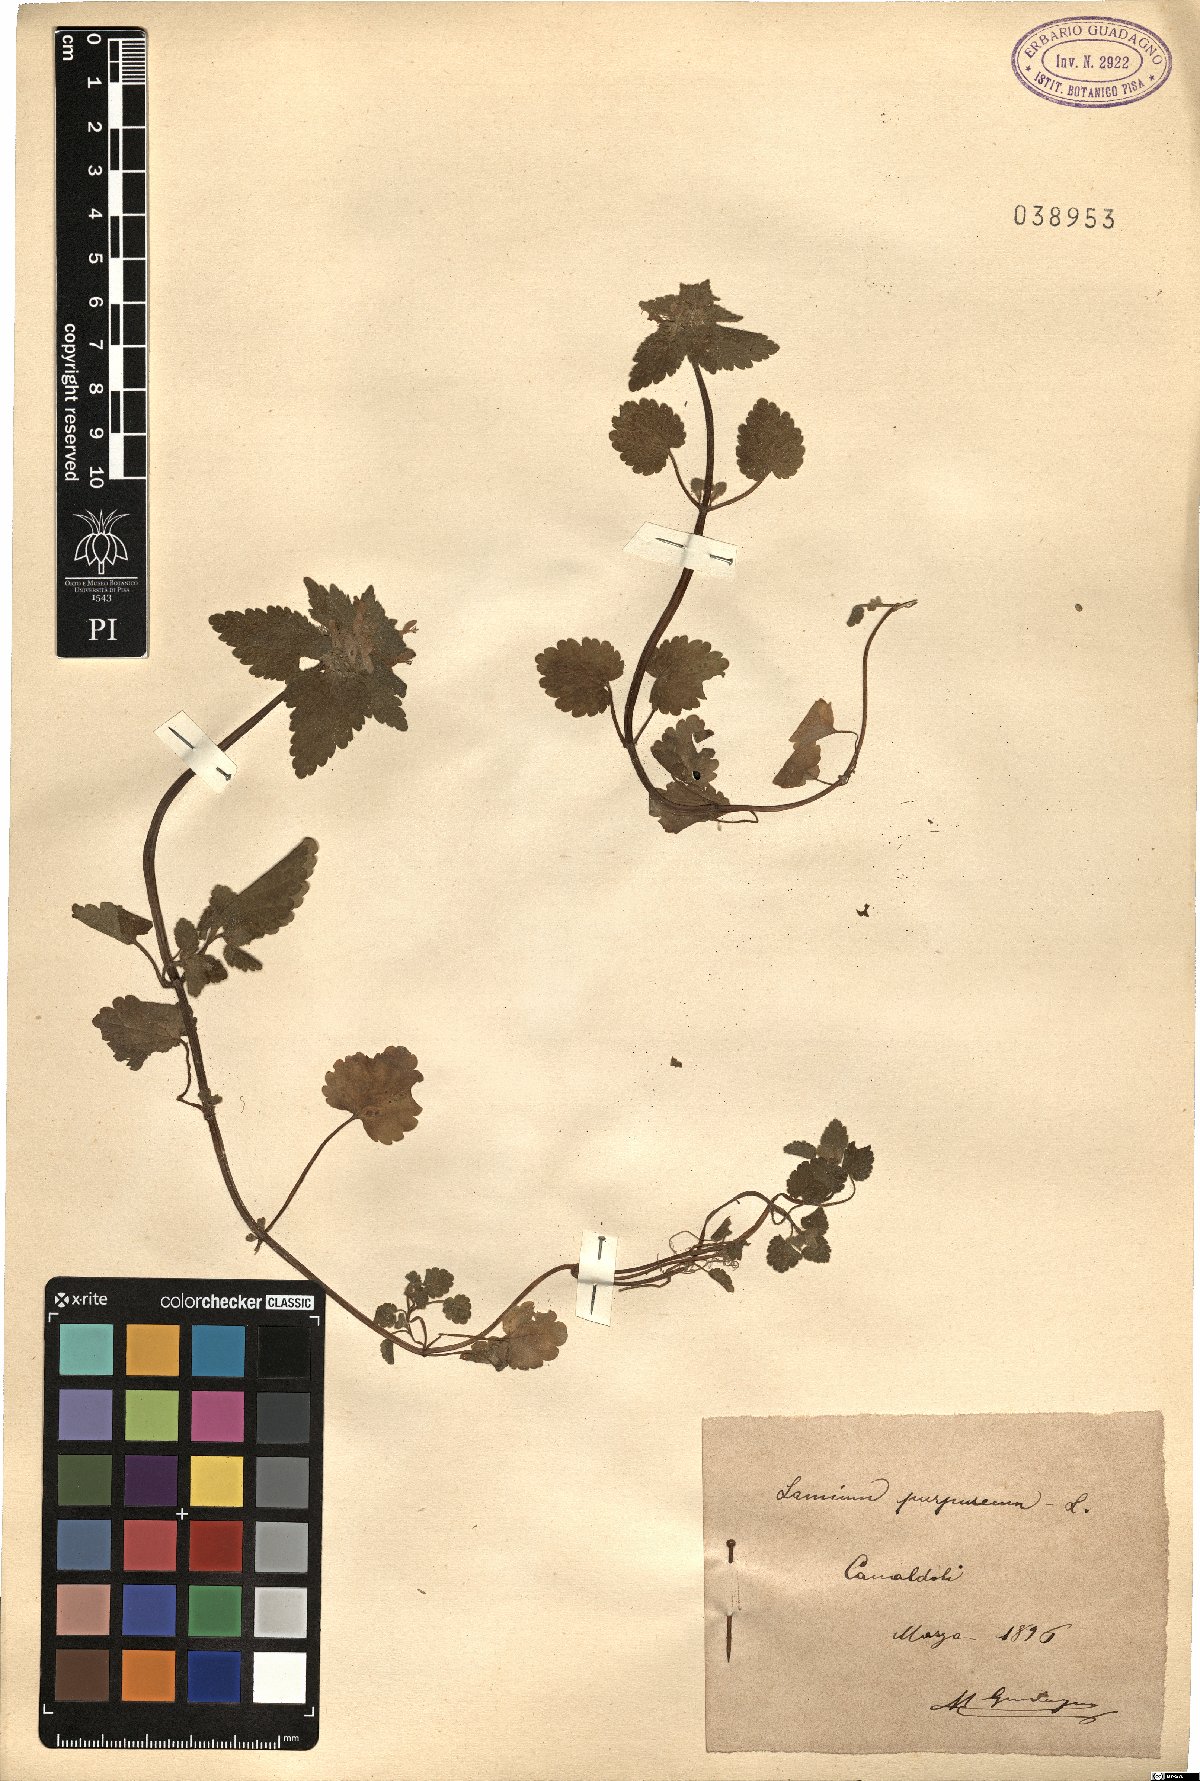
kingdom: Plantae
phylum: Tracheophyta
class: Magnoliopsida
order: Lamiales
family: Lamiaceae
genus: Lamium
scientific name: Lamium purpureum
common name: Red dead-nettle
